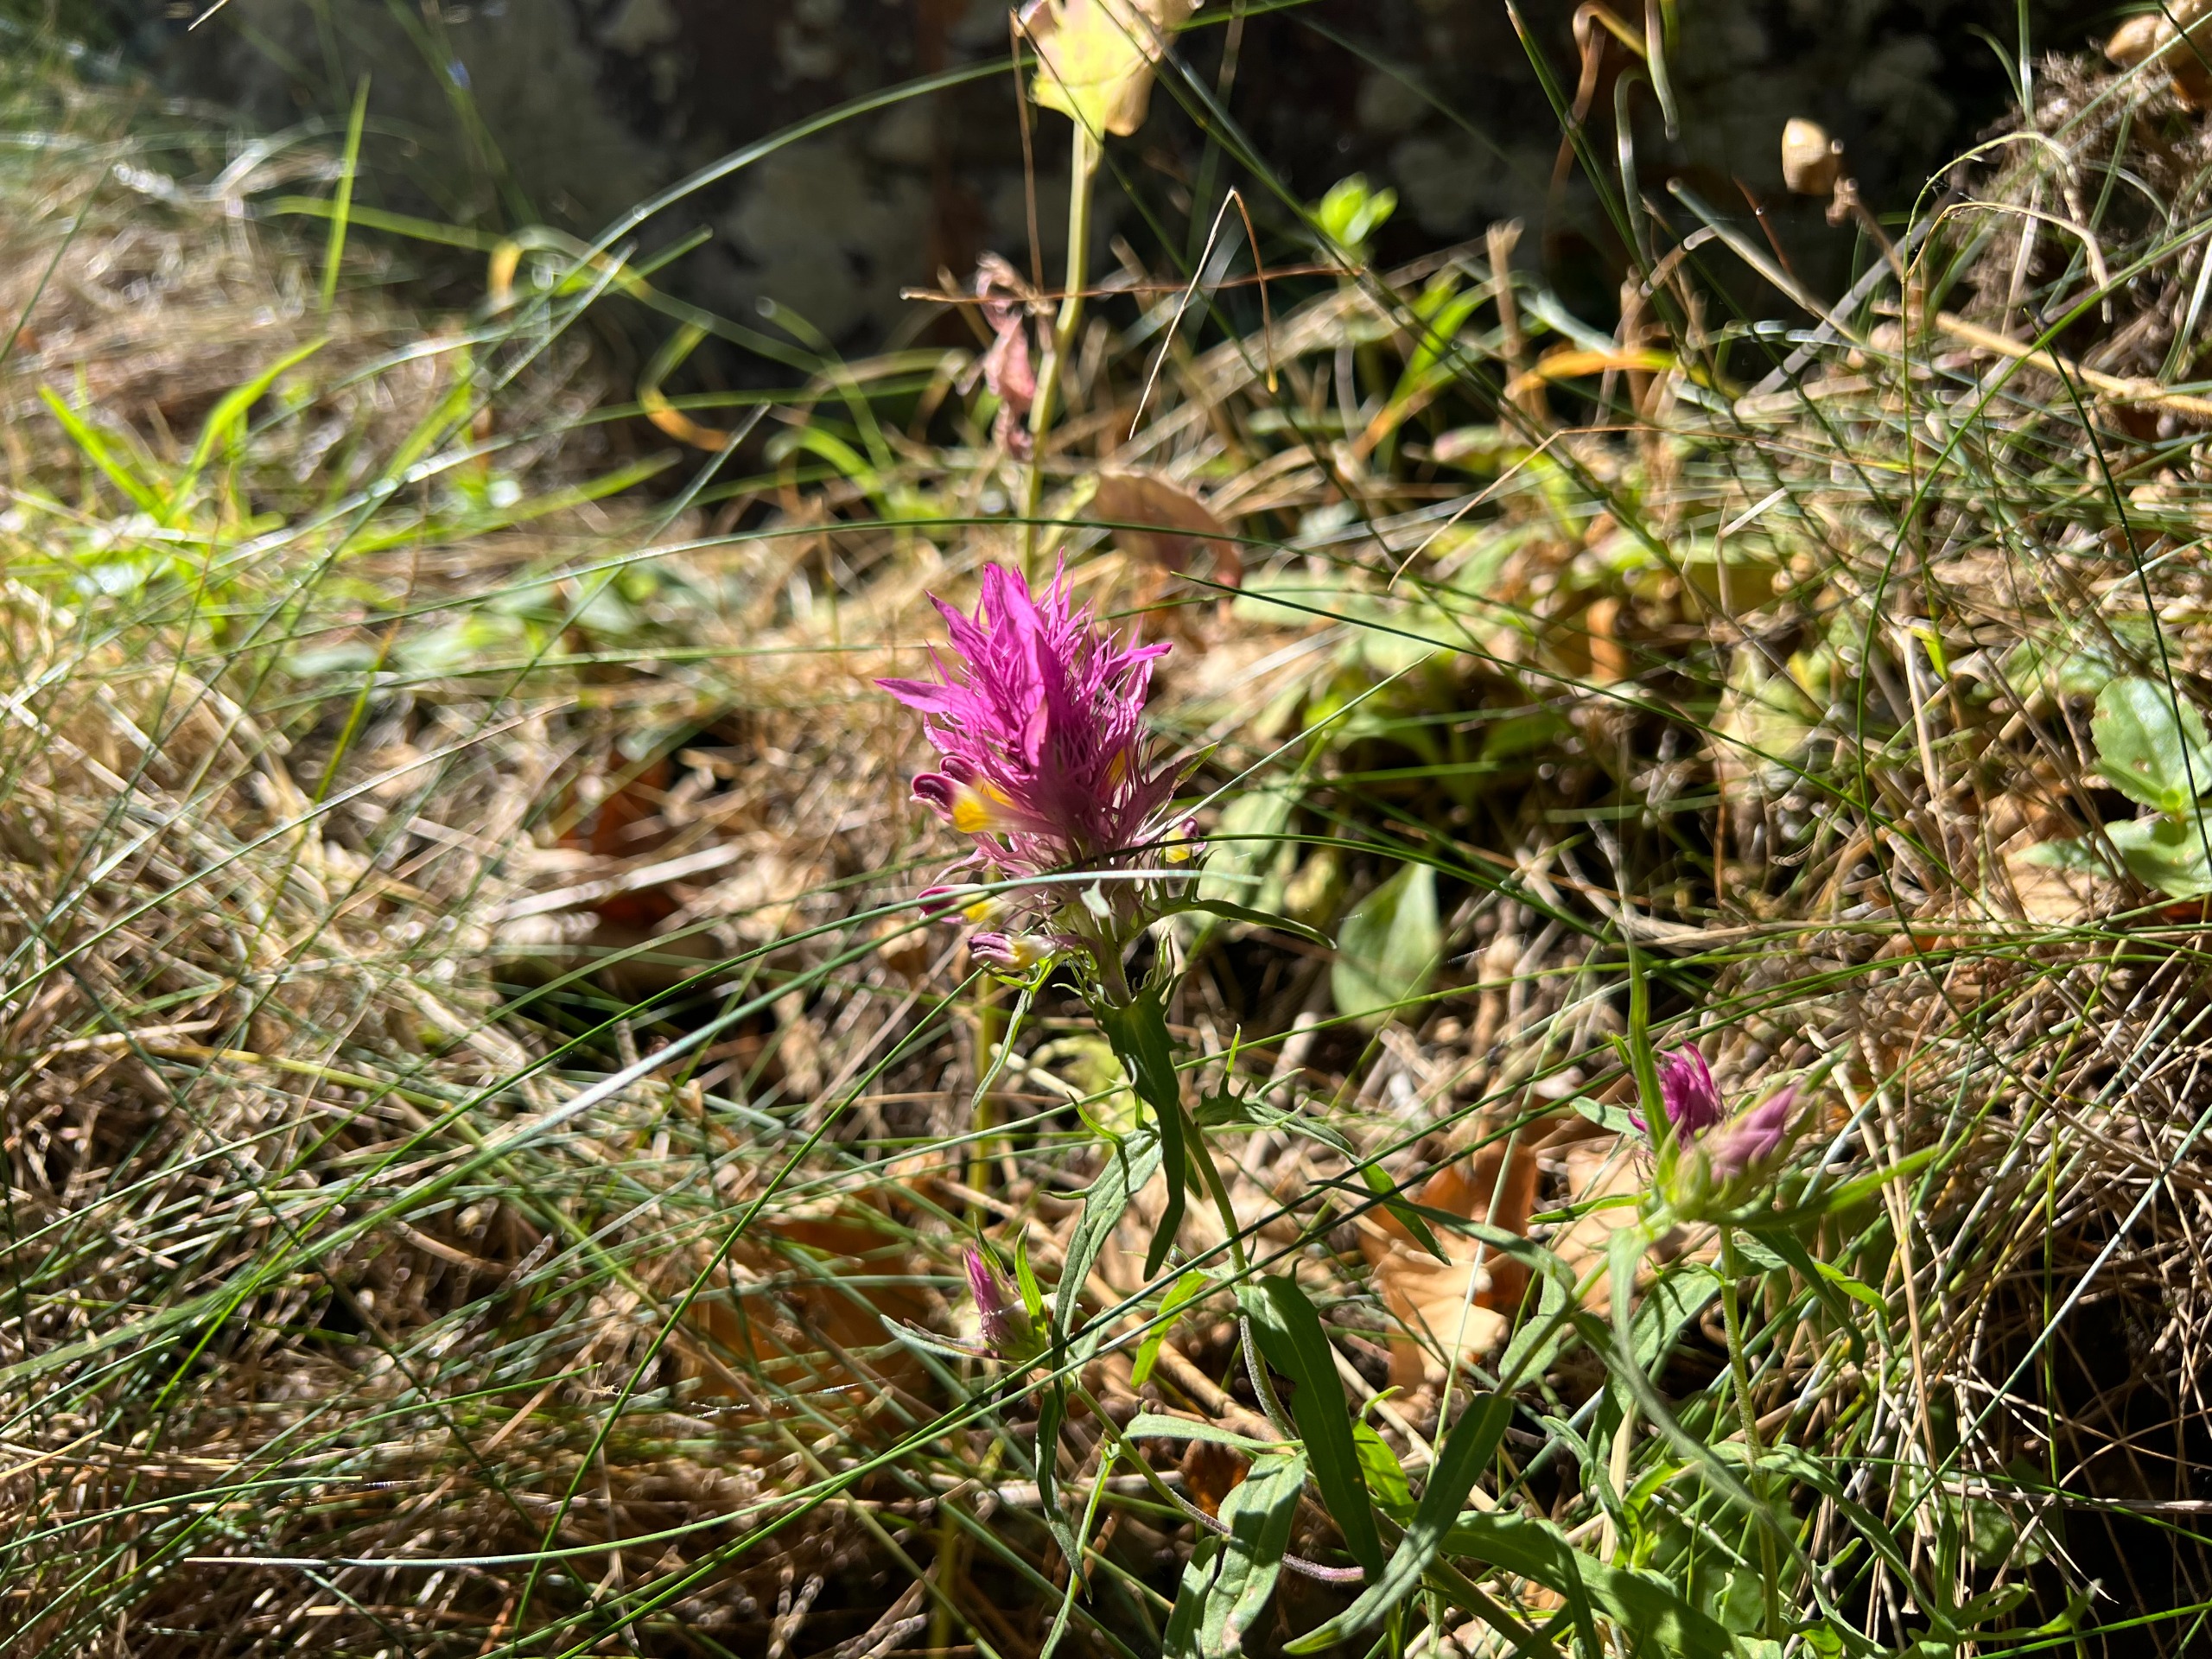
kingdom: Plantae
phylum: Tracheophyta
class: Magnoliopsida
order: Lamiales
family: Orobanchaceae
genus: Melampyrum
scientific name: Melampyrum arvense
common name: Ager-kohvede
